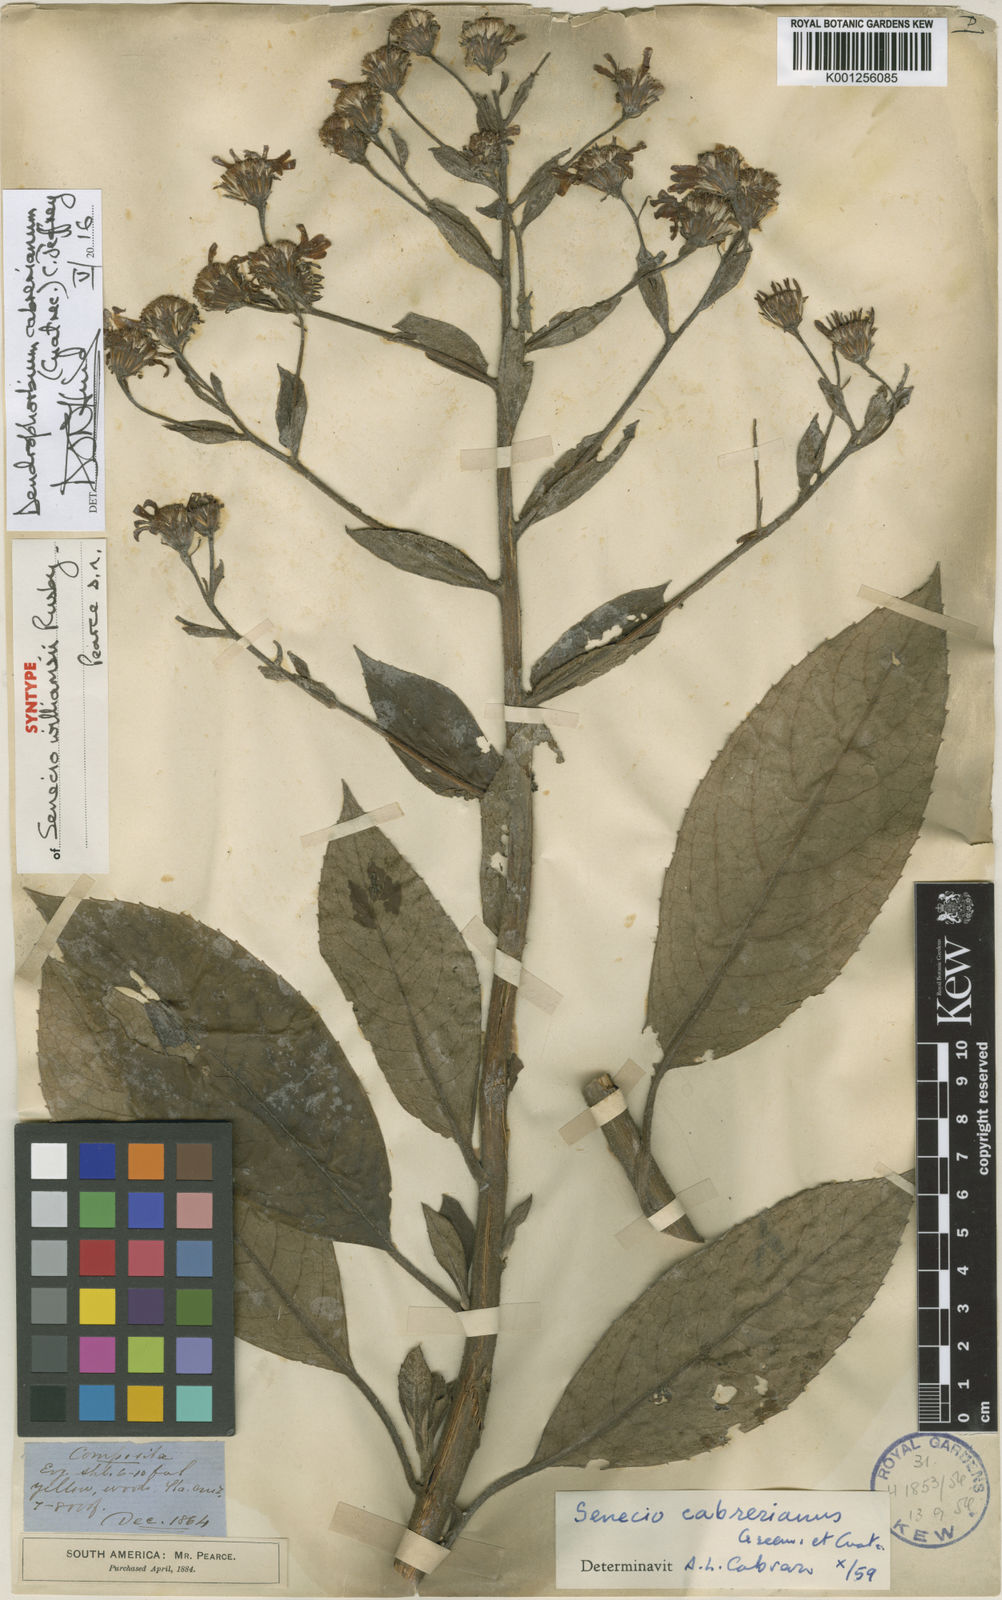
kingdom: Plantae
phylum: Tracheophyta
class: Magnoliopsida
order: Asterales
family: Asteraceae
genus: Dendrophorbium
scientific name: Dendrophorbium cabrerianum
